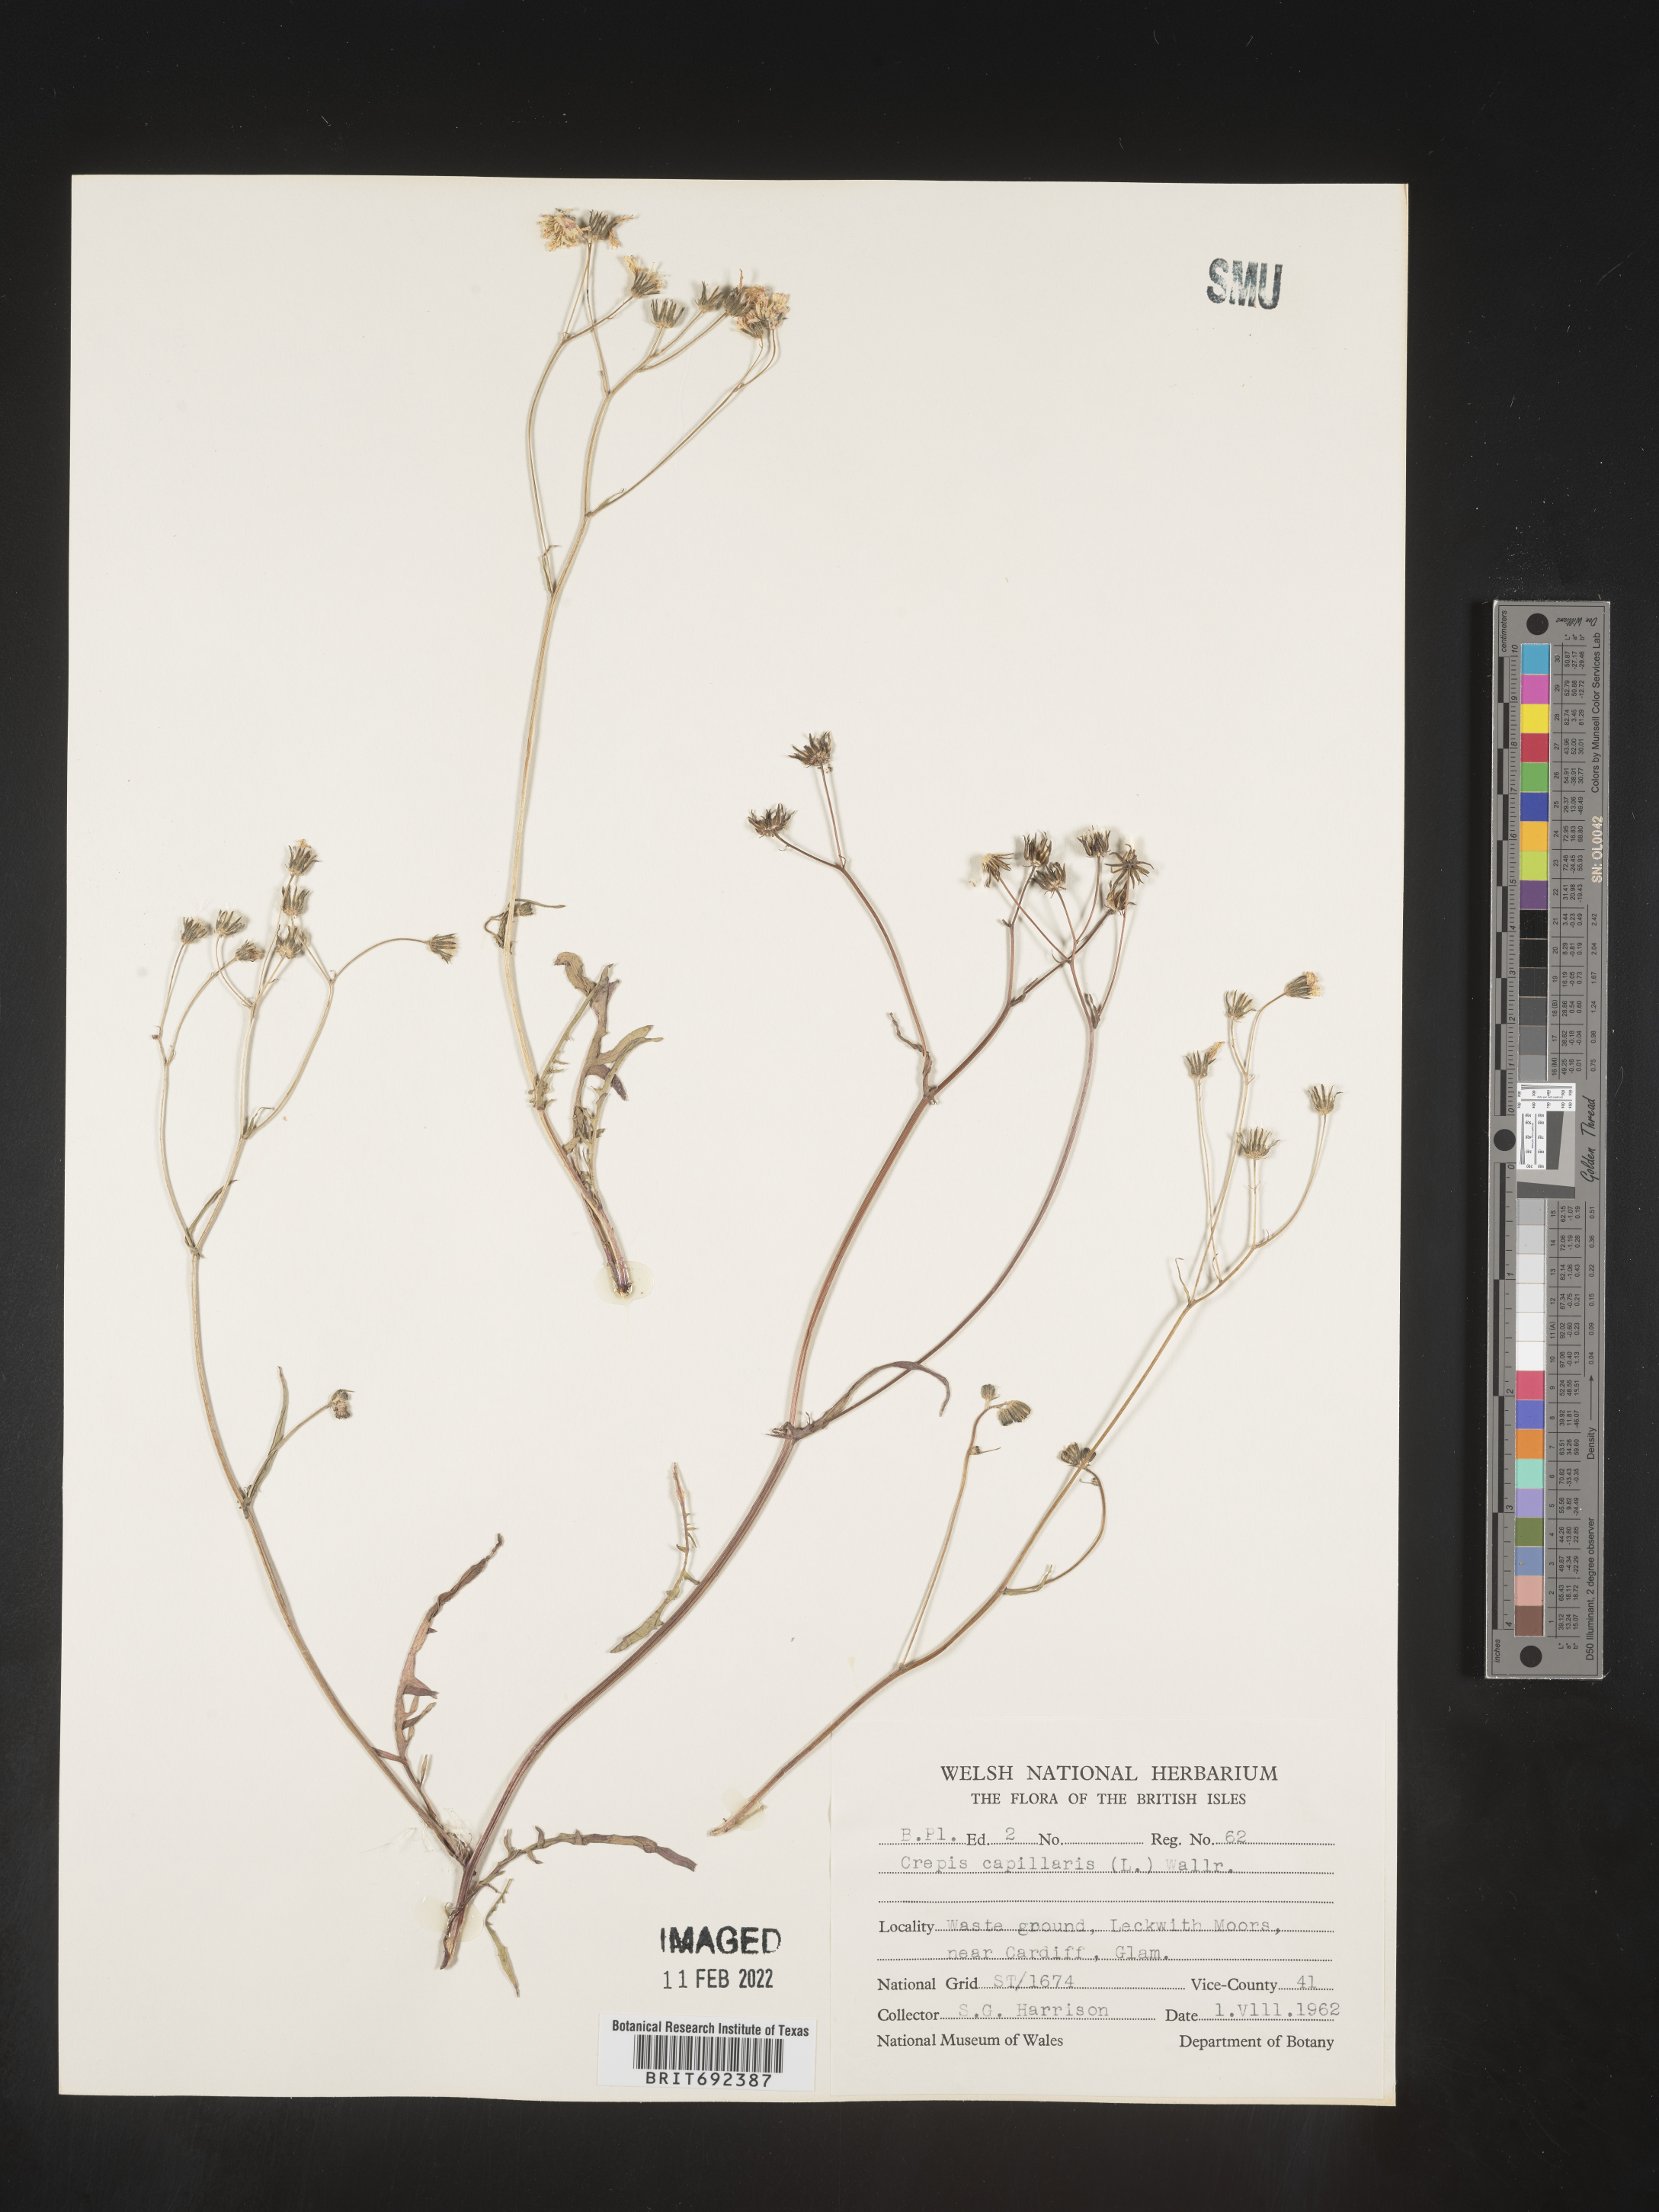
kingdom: Plantae
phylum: Tracheophyta
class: Magnoliopsida
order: Asterales
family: Asteraceae
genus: Crepis
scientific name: Crepis
